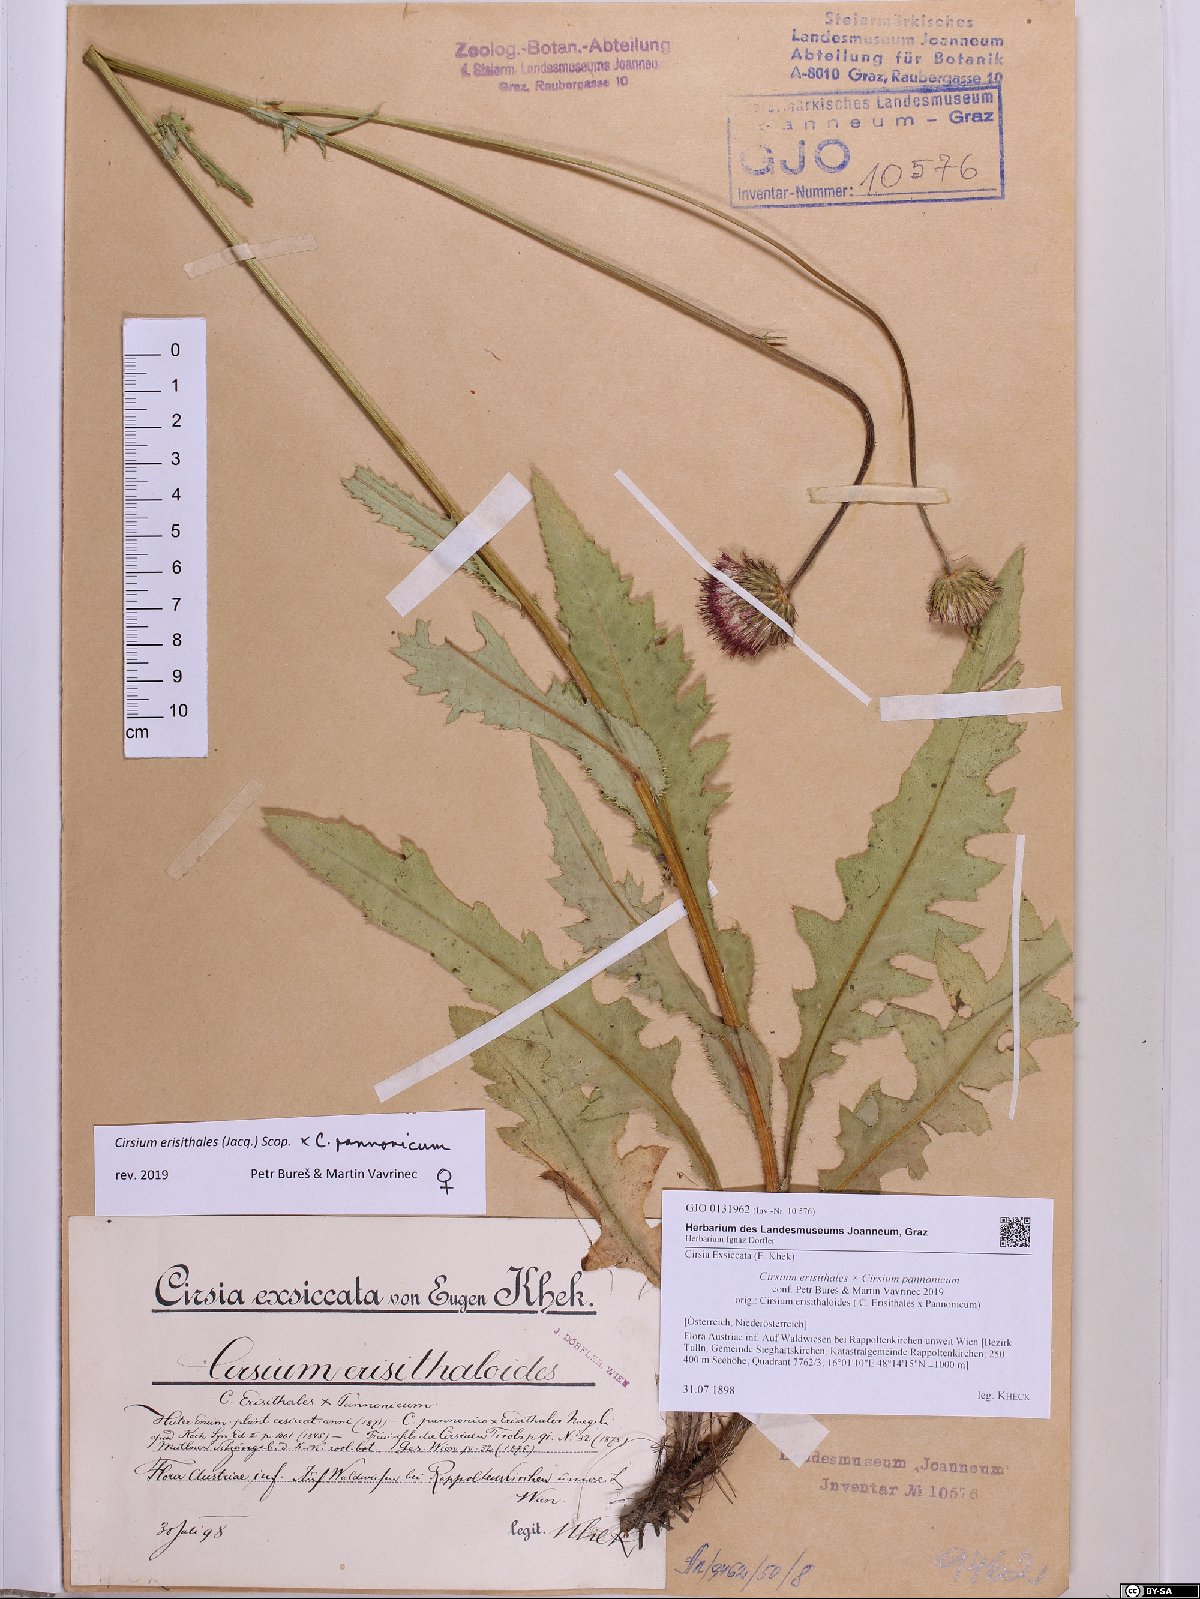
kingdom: Plantae
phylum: Tracheophyta
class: Magnoliopsida
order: Asterales
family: Asteraceae
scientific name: Asteraceae
